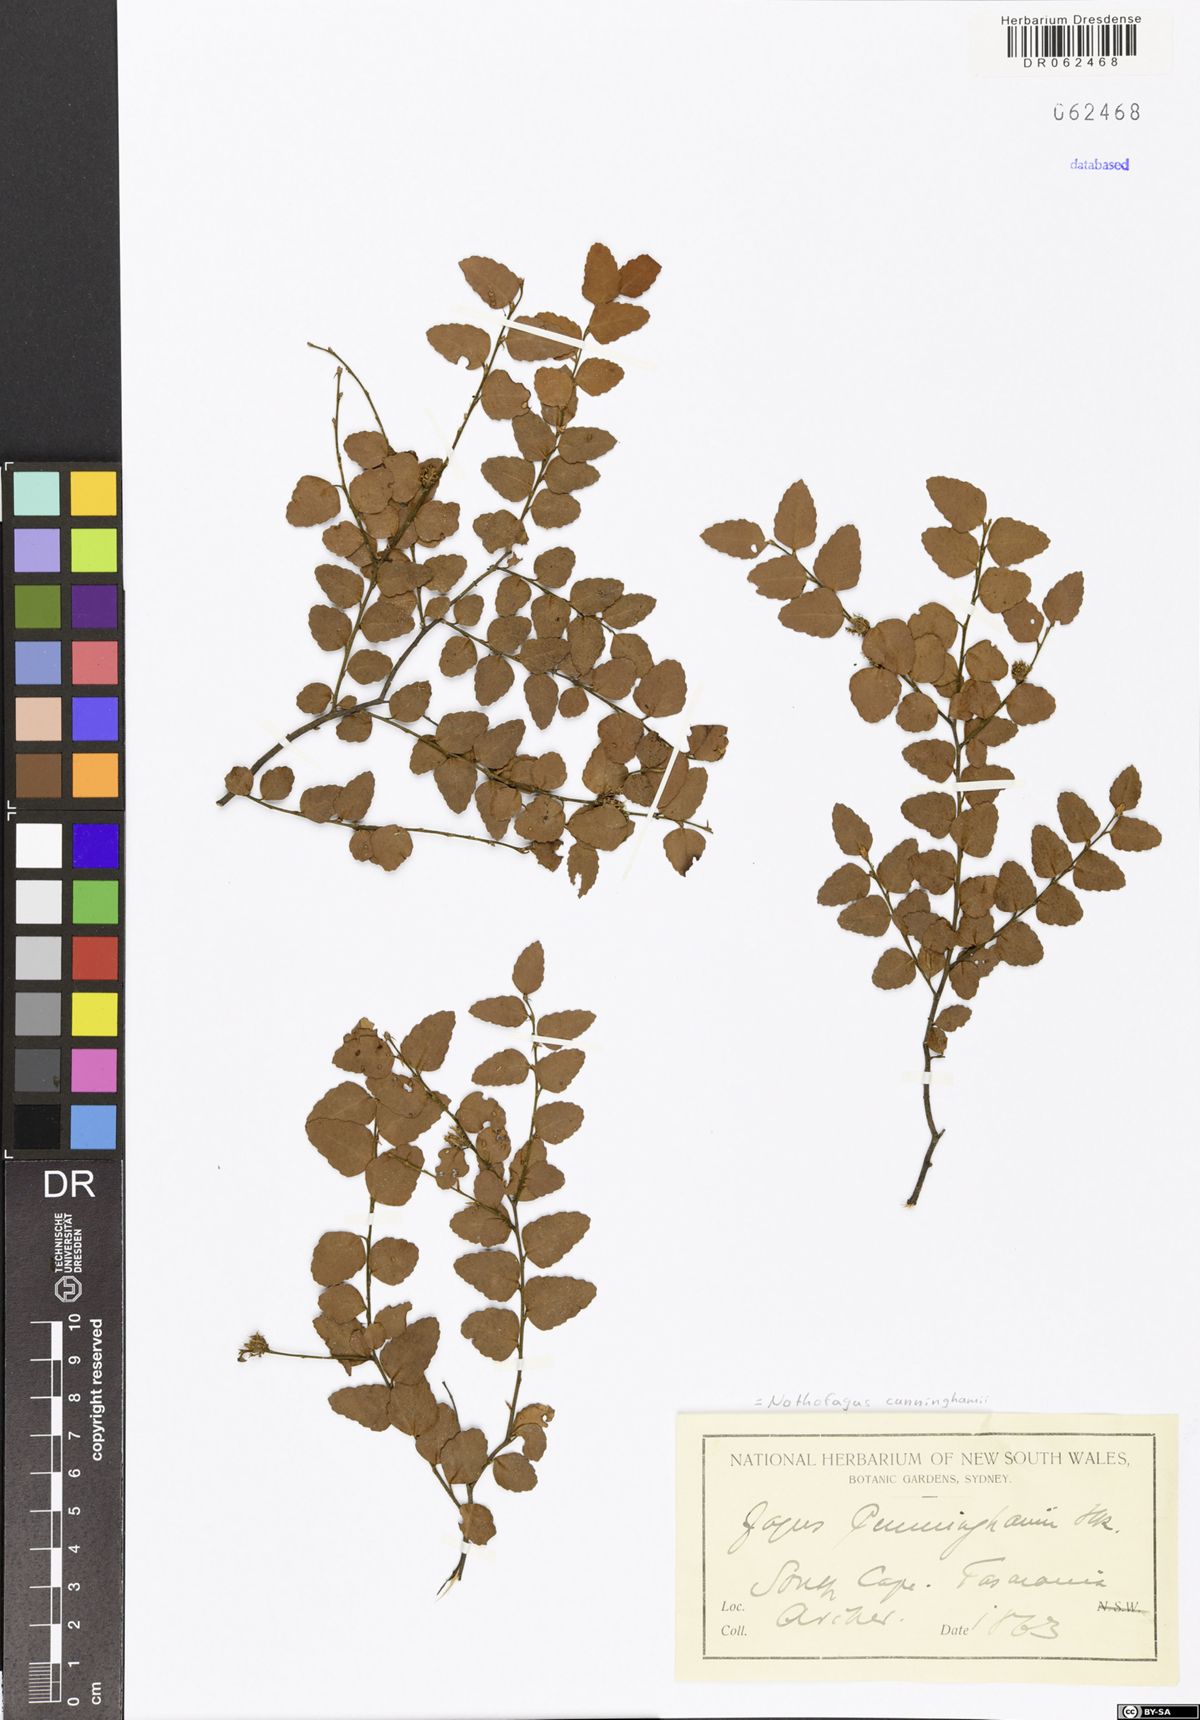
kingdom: Plantae
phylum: Tracheophyta
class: Magnoliopsida
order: Fagales
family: Nothofagaceae
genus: Nothofagus
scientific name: Nothofagus cunninghamii
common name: Myrtle beech
